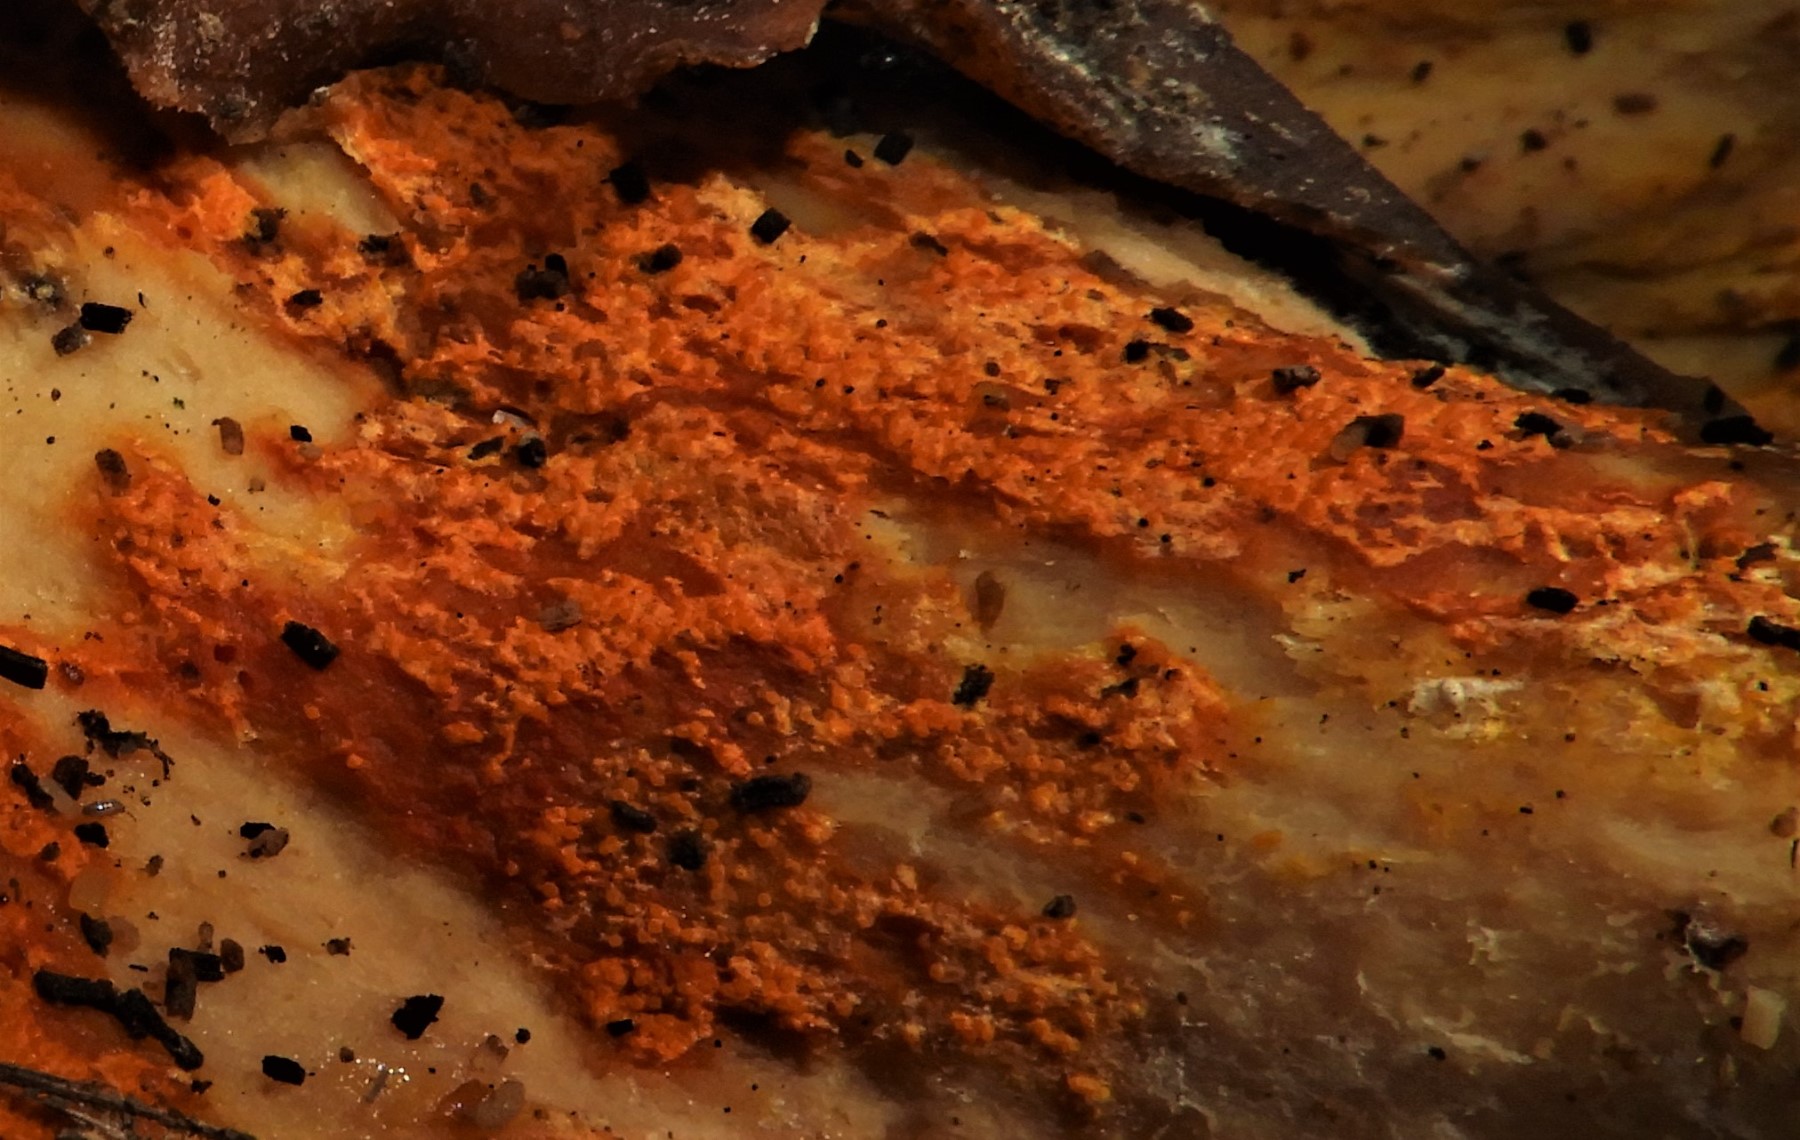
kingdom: Fungi
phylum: Ascomycota
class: Sordariomycetes
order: Hypocreales
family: Hypocreaceae
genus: Hypomyces
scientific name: Hypomyces aurantius
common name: almindelig snylteskorpe
